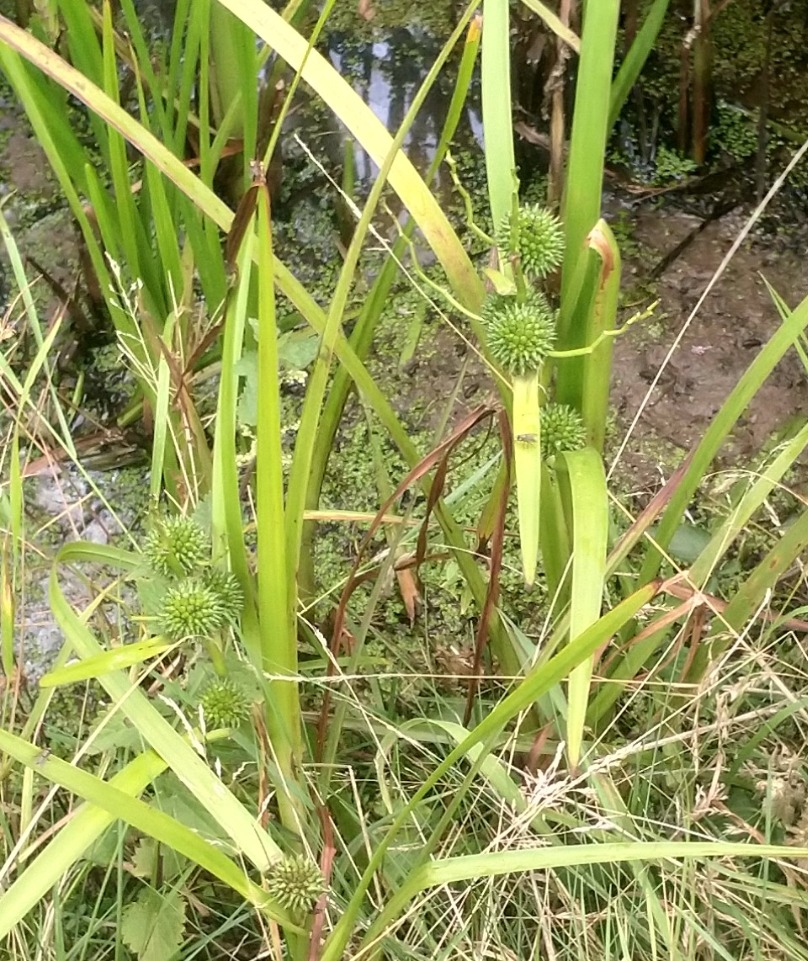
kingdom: Plantae
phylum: Tracheophyta
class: Liliopsida
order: Poales
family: Typhaceae
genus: Sparganium
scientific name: Sparganium emersum
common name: Enkelt pindsvineknop
